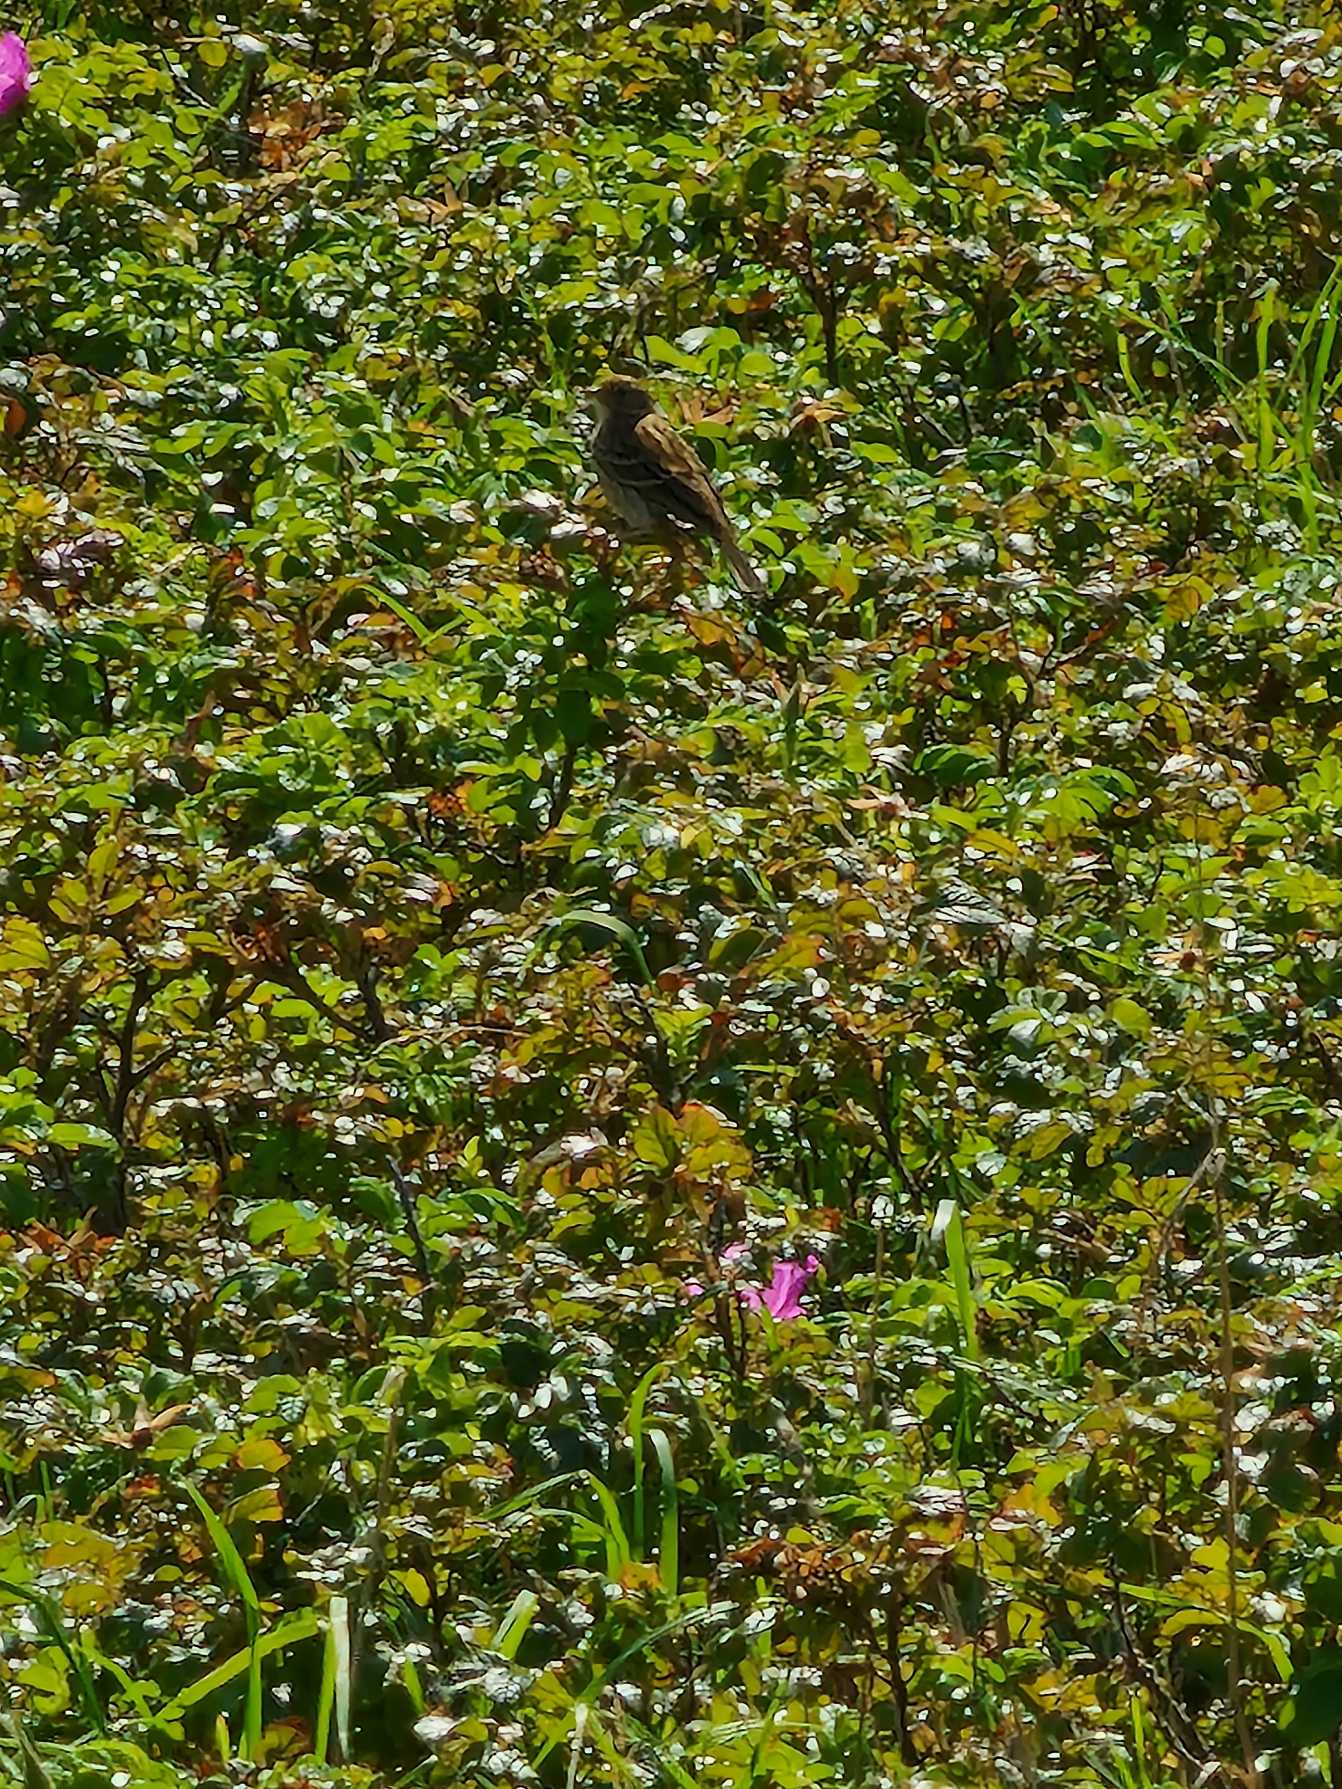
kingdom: Animalia
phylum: Chordata
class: Aves
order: Passeriformes
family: Motacillidae
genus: Anthus
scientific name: Anthus pratensis
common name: Engpiber
